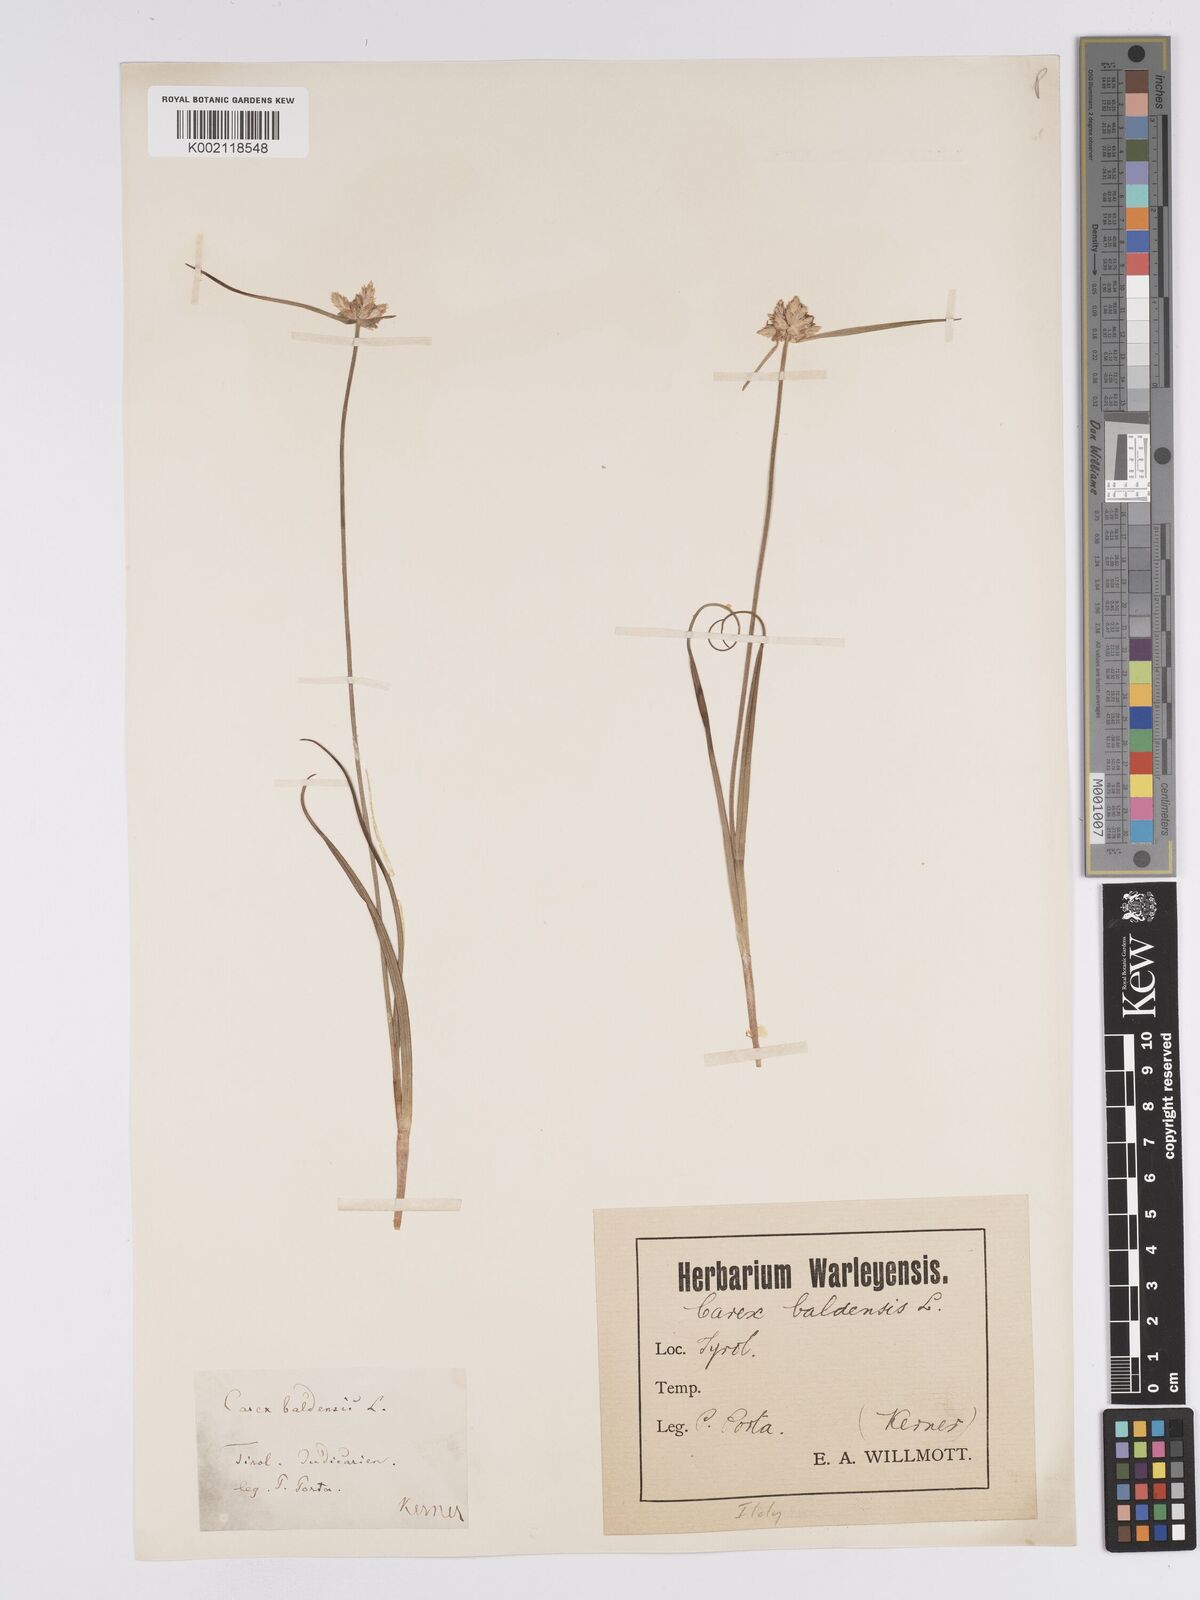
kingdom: Plantae
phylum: Tracheophyta
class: Liliopsida
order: Poales
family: Cyperaceae
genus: Carex
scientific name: Carex baldensis
